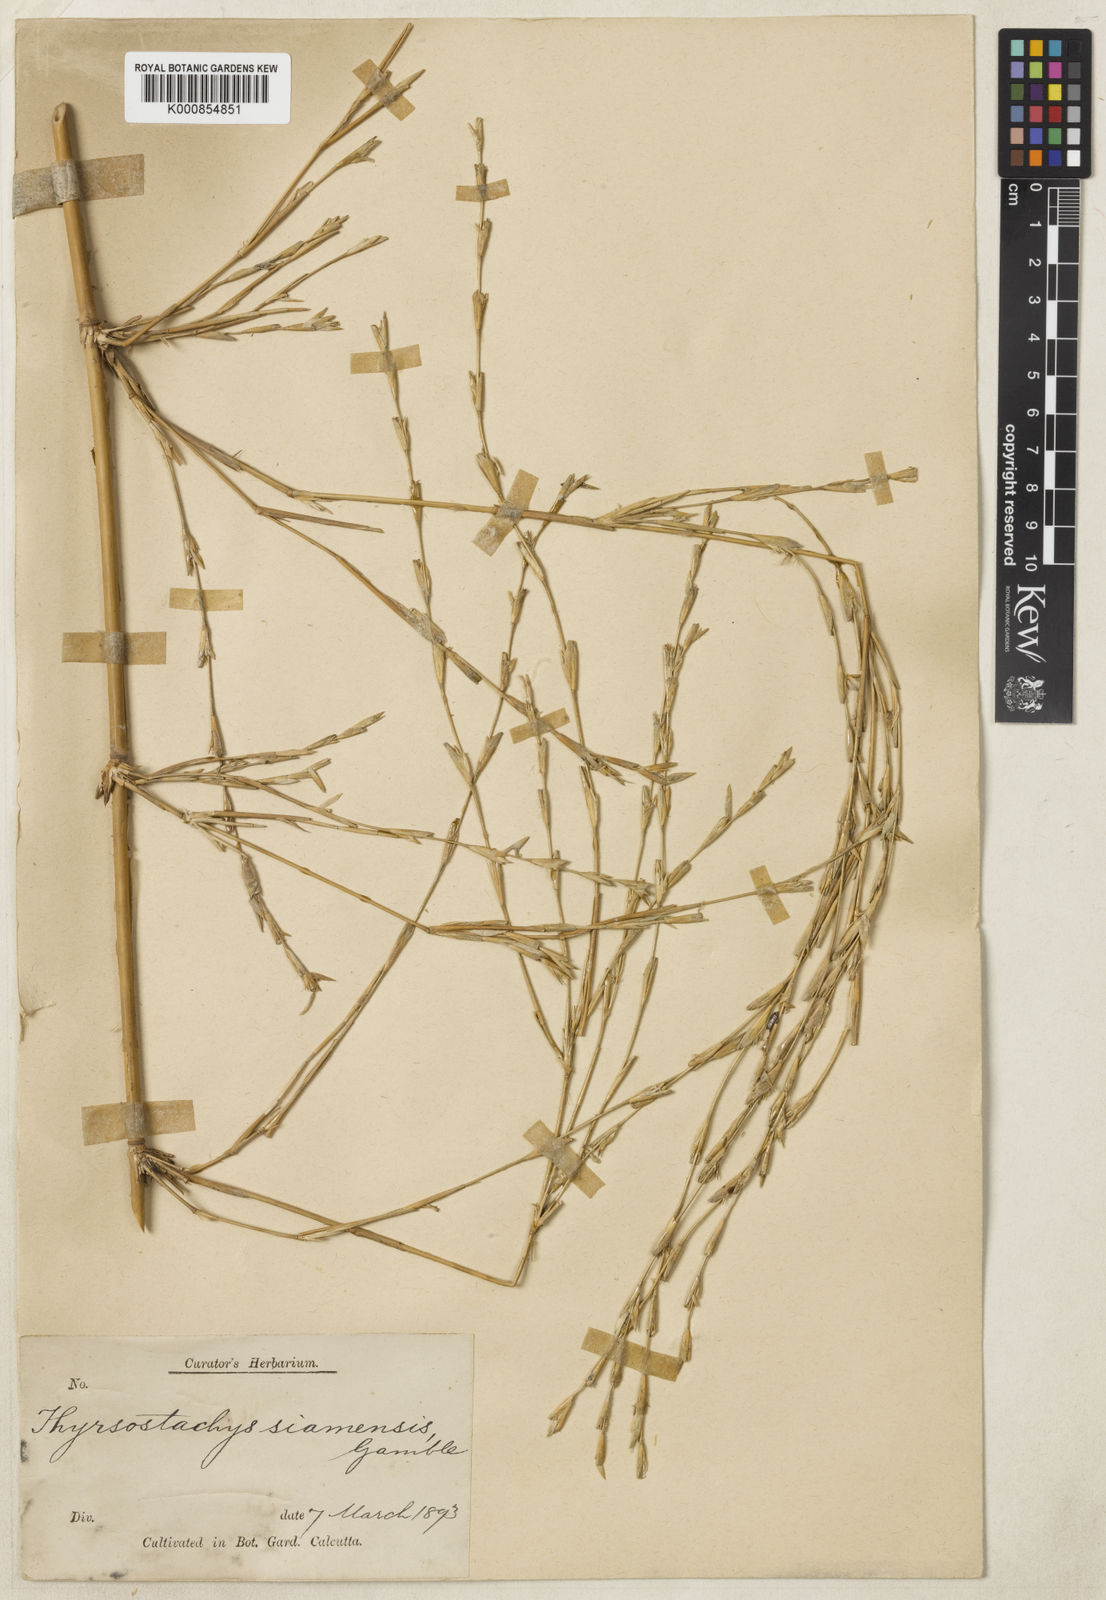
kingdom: Plantae
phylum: Tracheophyta
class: Liliopsida
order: Poales
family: Poaceae
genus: Thyrsostachys
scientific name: Thyrsostachys siamensis
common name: Thailand bamboo
